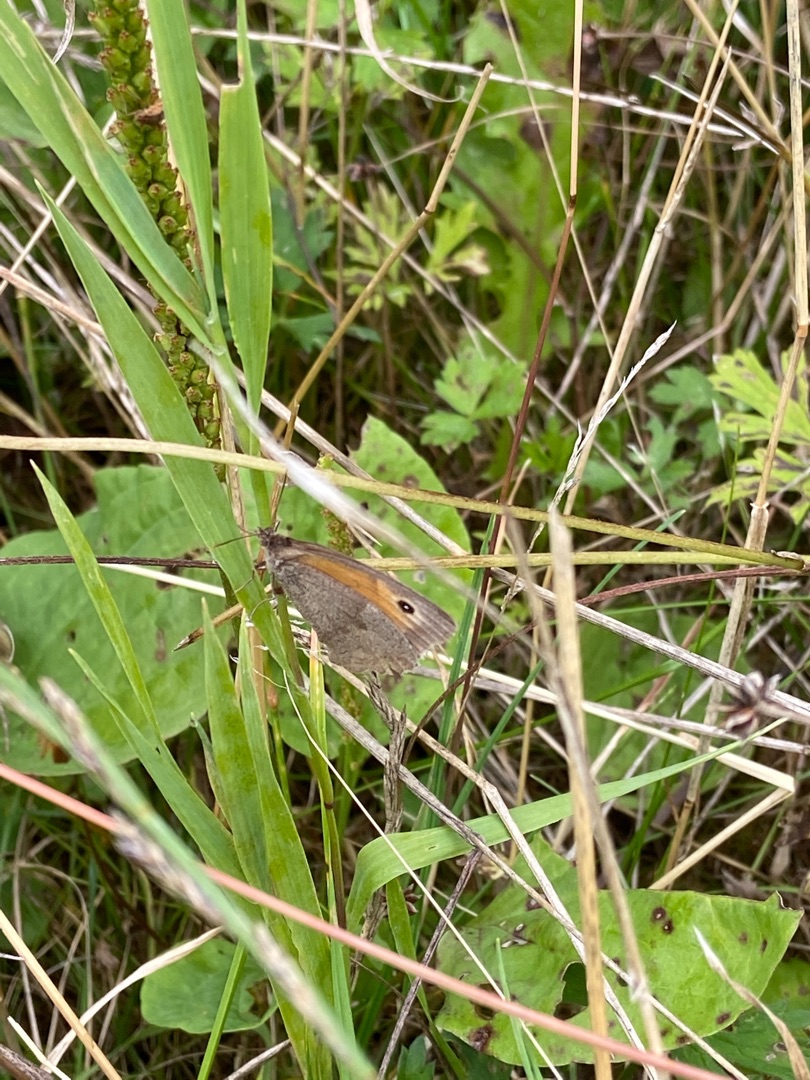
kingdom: Animalia
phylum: Arthropoda
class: Insecta
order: Lepidoptera
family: Nymphalidae
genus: Maniola
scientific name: Maniola jurtina
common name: Græsrandøje
